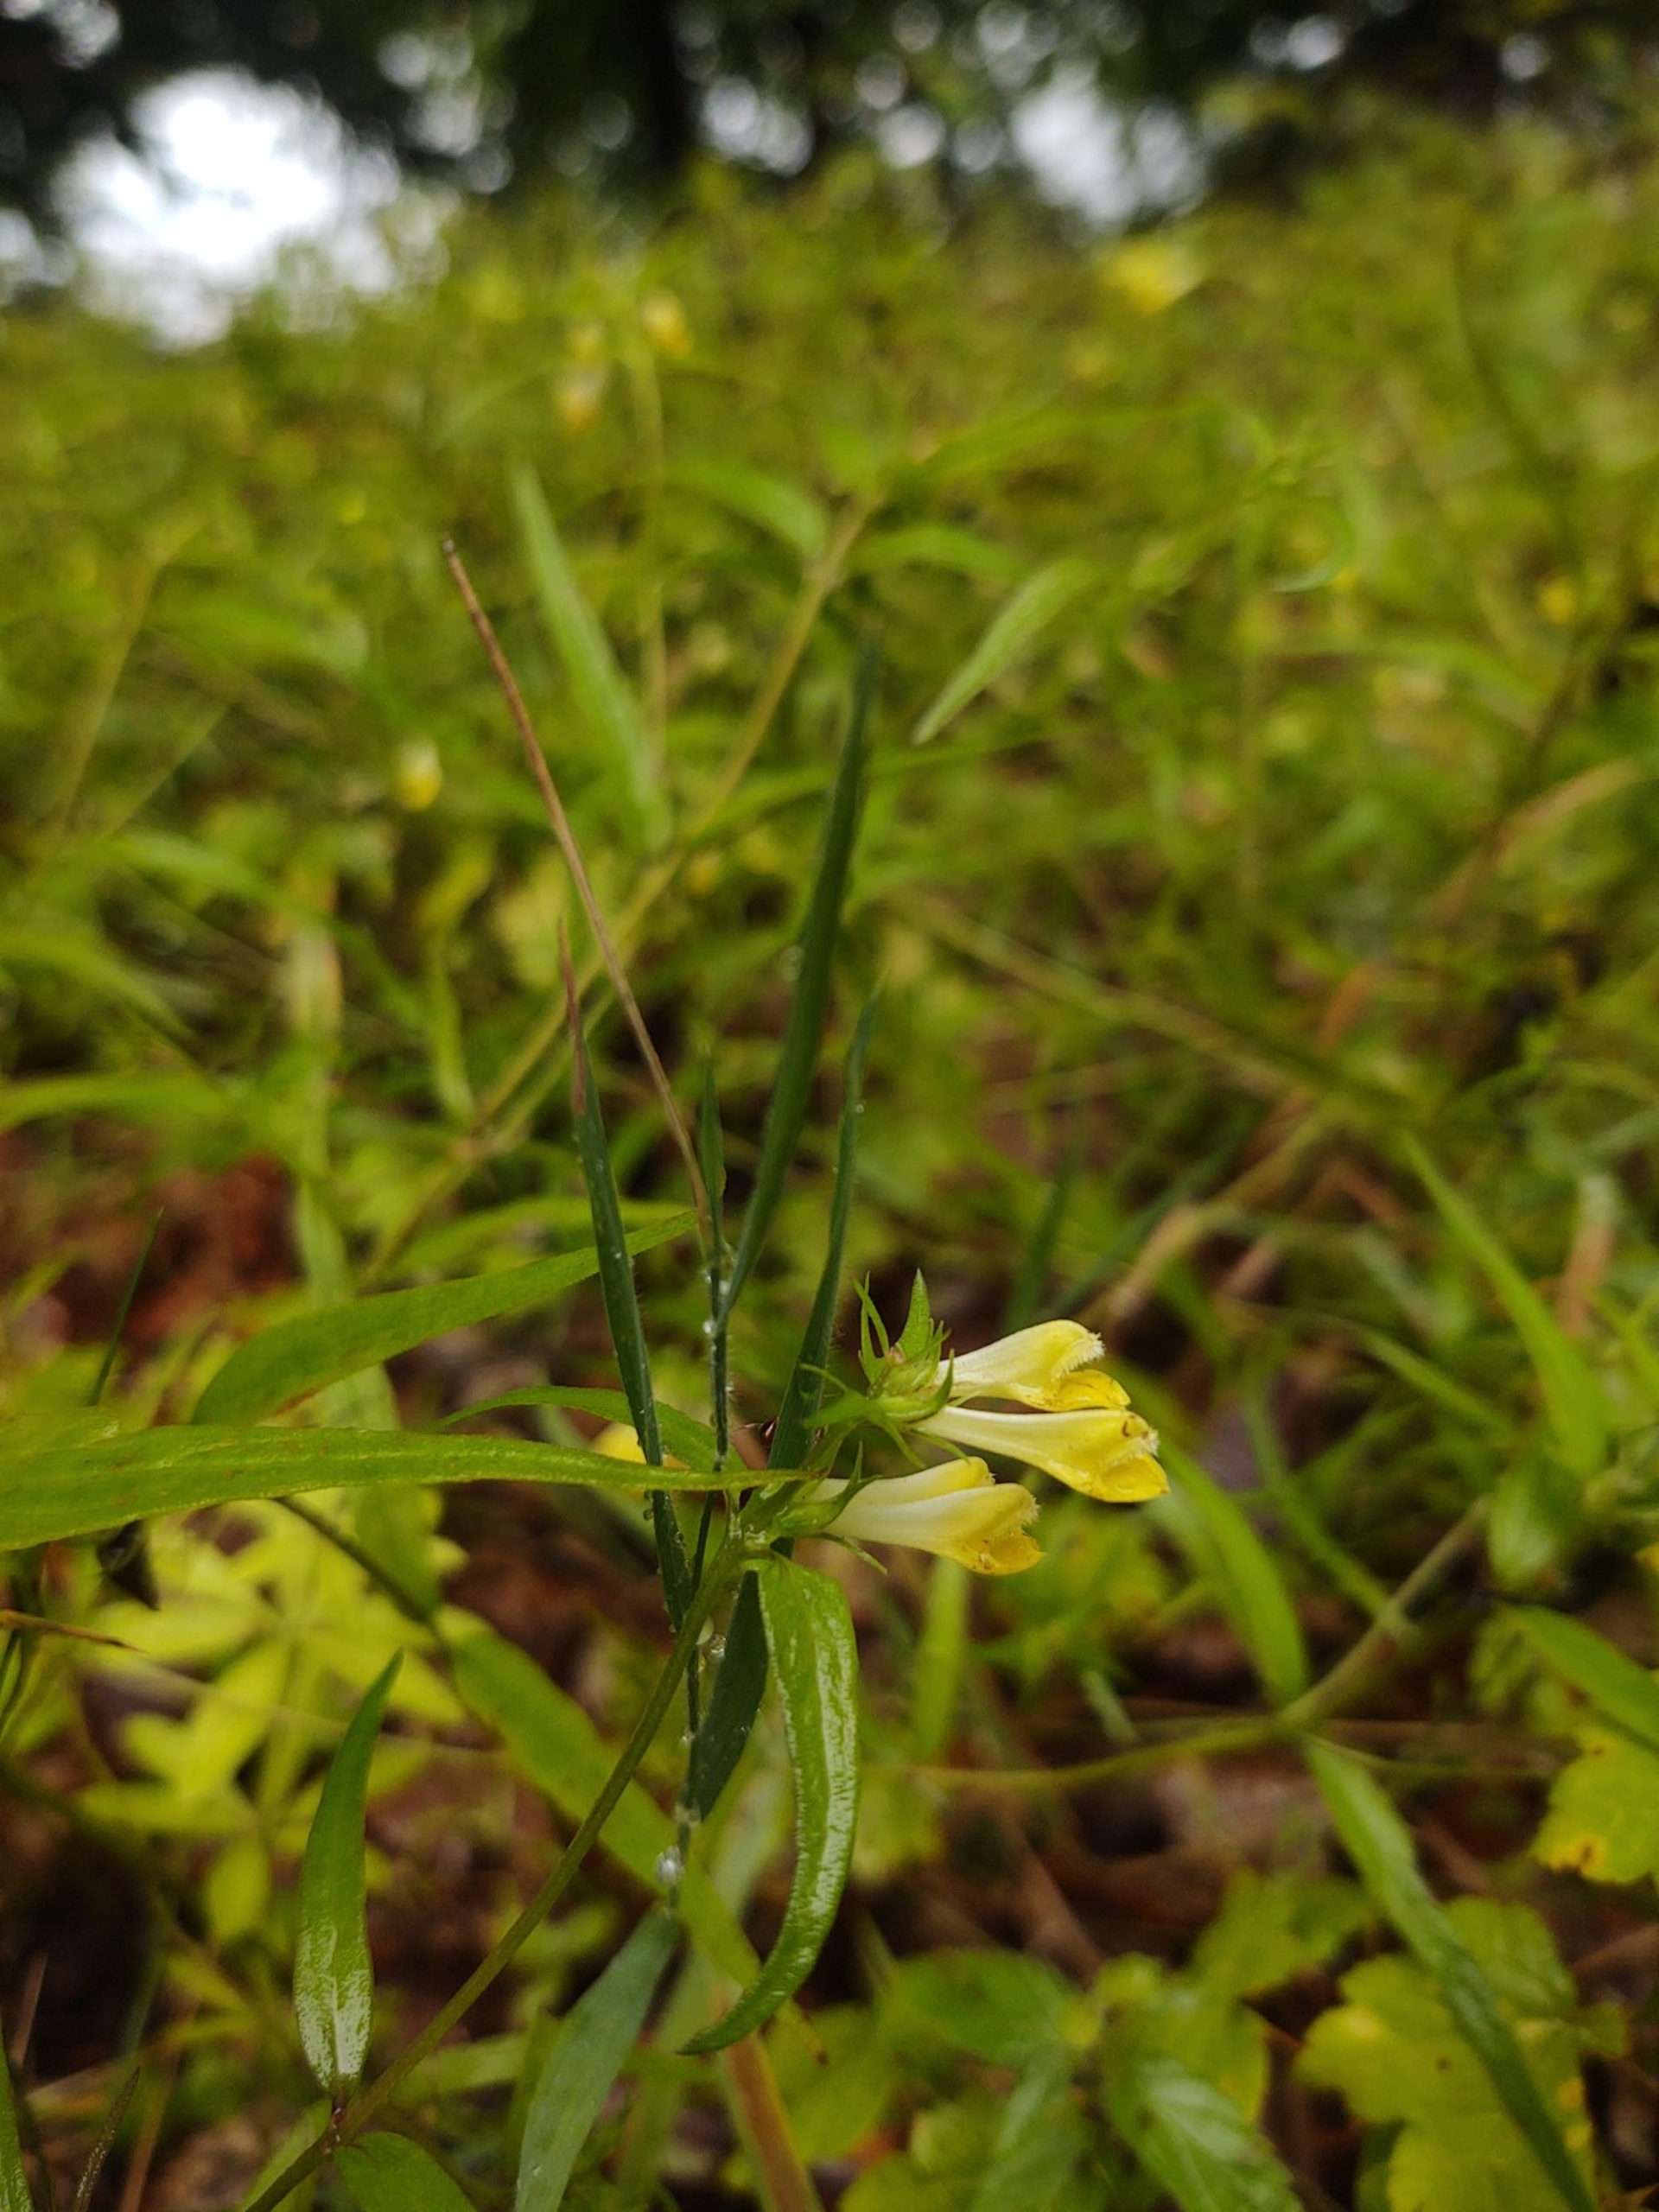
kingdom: Plantae
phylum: Tracheophyta
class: Magnoliopsida
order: Lamiales
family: Orobanchaceae
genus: Melampyrum
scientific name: Melampyrum pratense
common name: Almindelig kohvede
